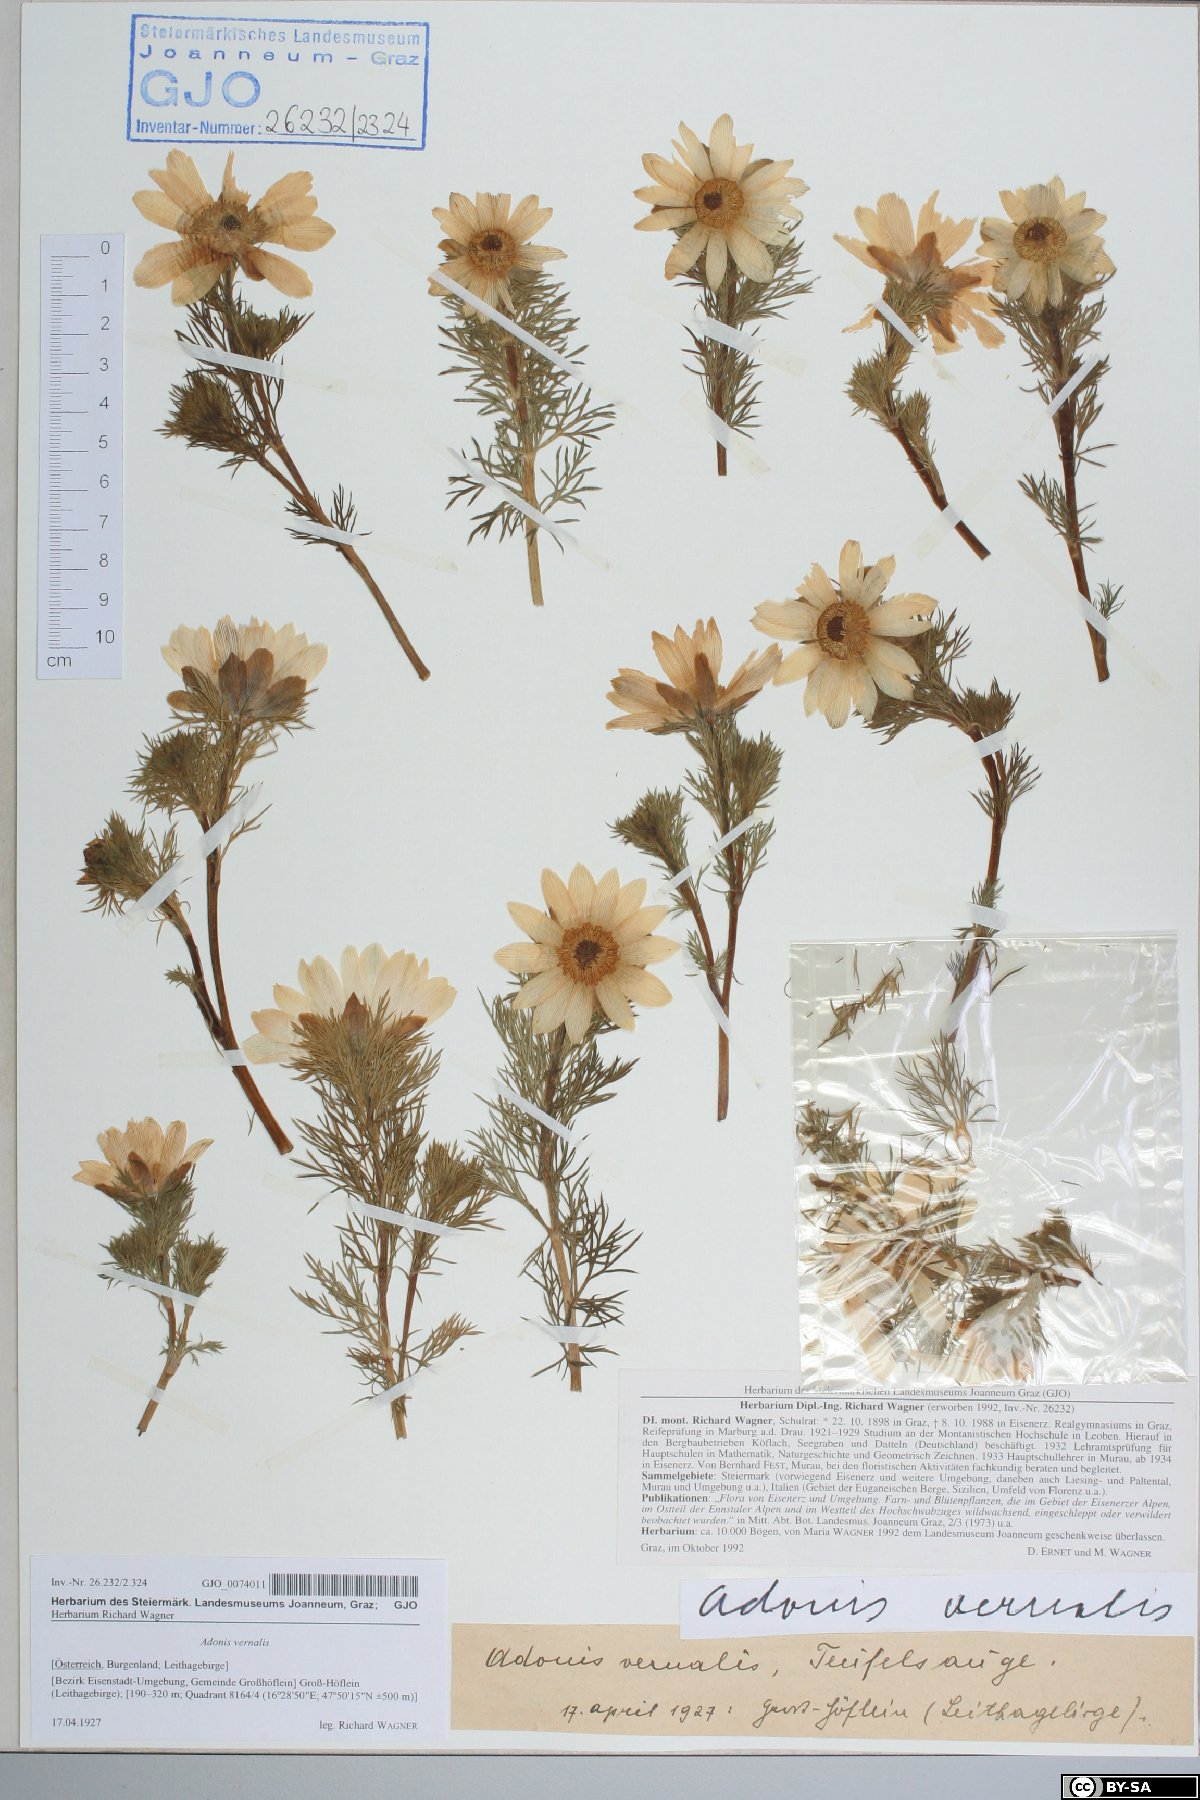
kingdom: Plantae
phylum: Tracheophyta
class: Magnoliopsida
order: Ranunculales
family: Ranunculaceae
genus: Adonis
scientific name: Adonis vernalis
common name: Yellow pheasants-eye
